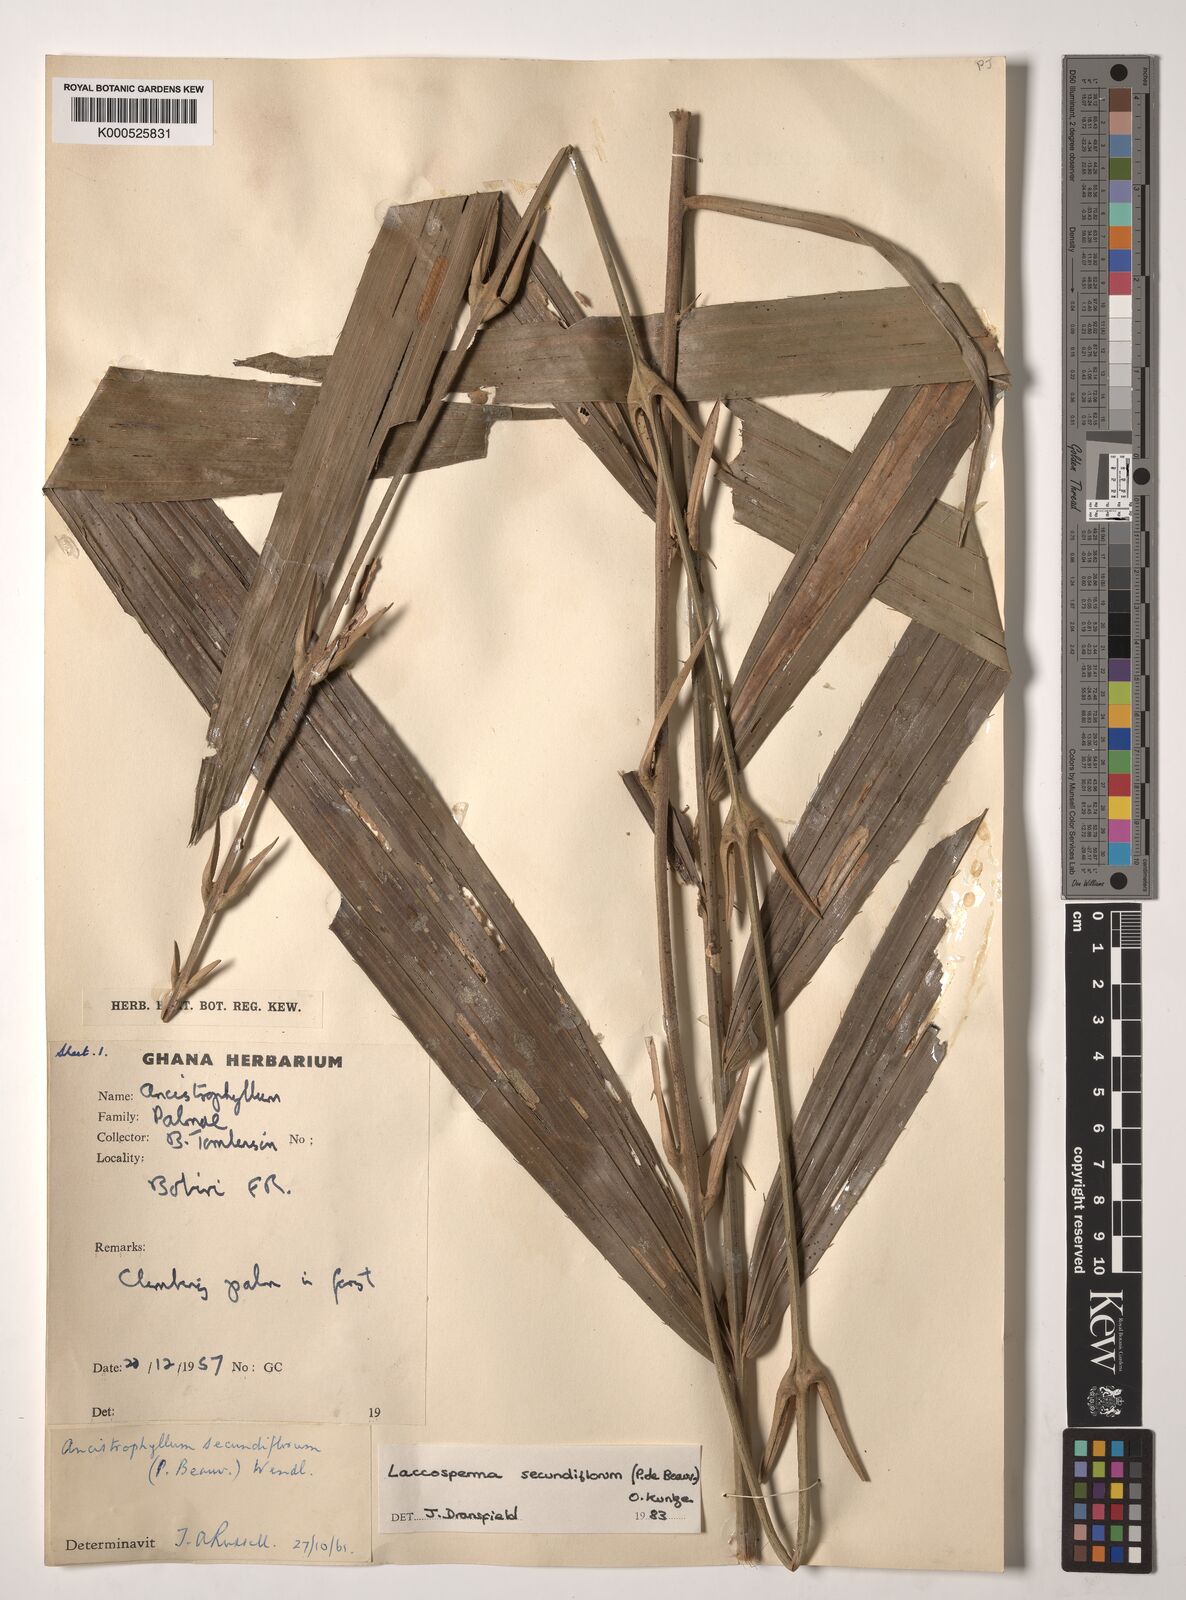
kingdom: Plantae
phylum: Tracheophyta
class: Liliopsida
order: Arecales
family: Arecaceae
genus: Eremospatha
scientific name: Eremospatha
